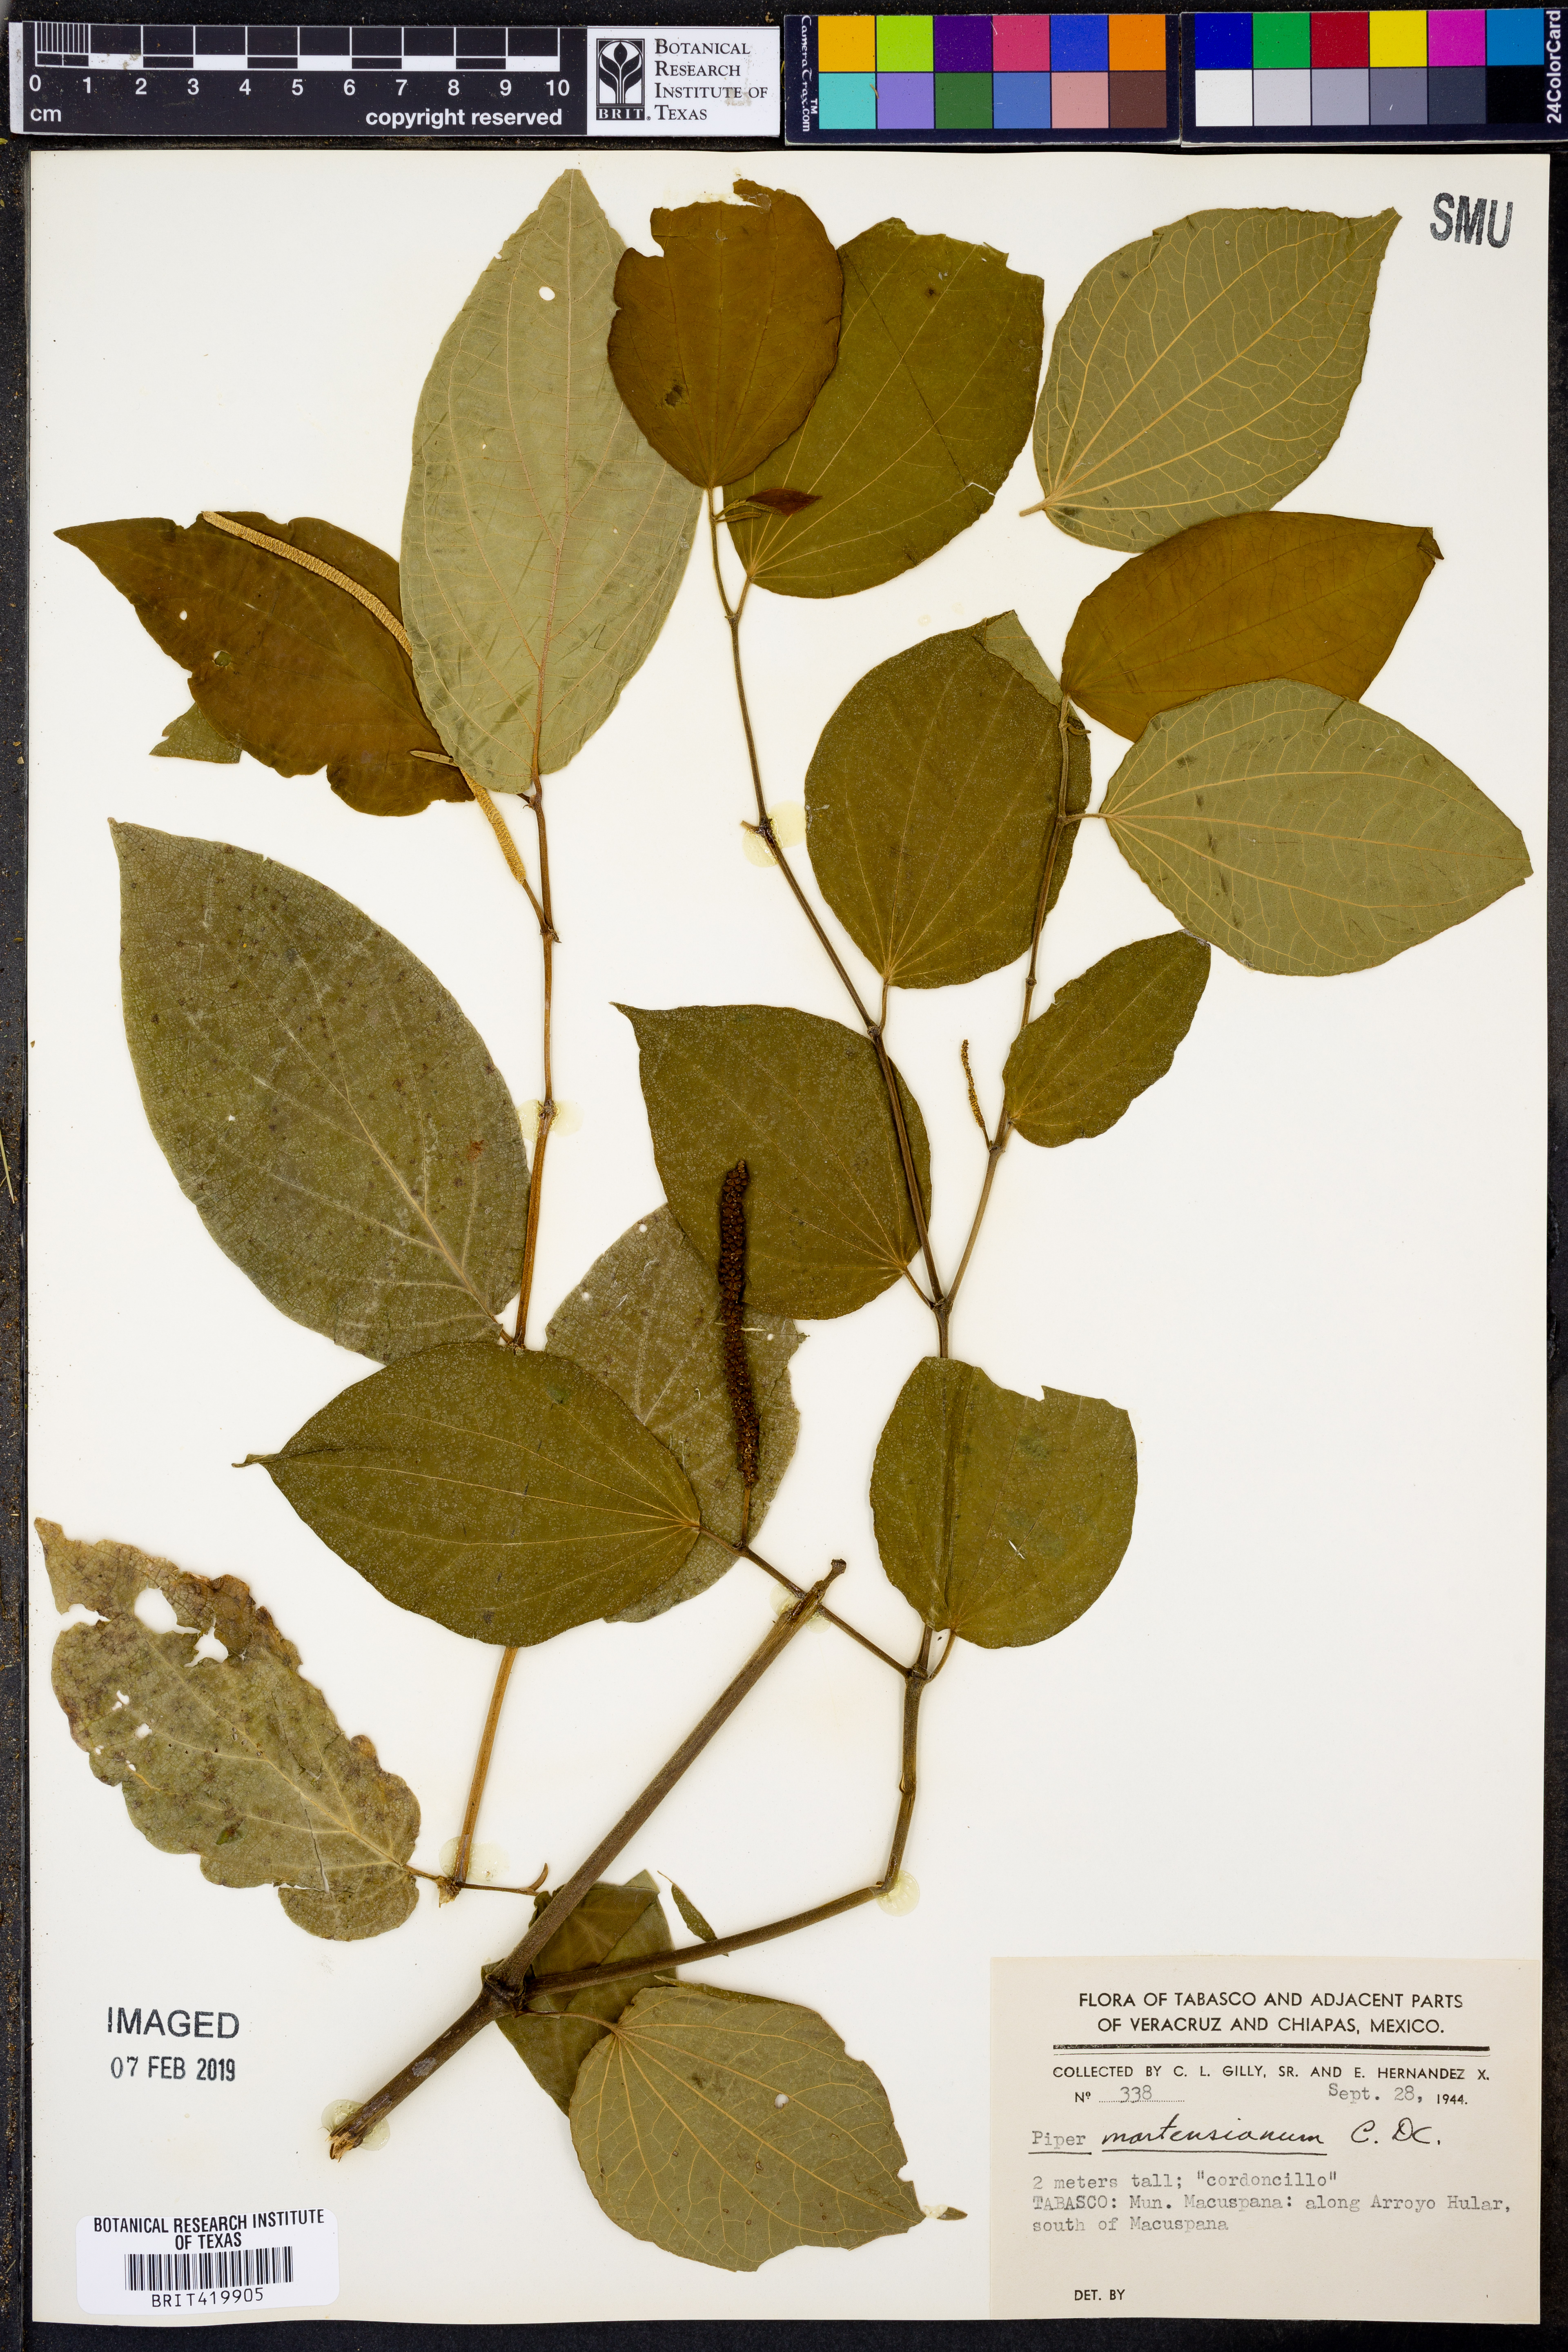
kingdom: Plantae
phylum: Tracheophyta
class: Magnoliopsida
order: Piperales
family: Piperaceae
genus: Piper
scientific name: Piper martensianum
